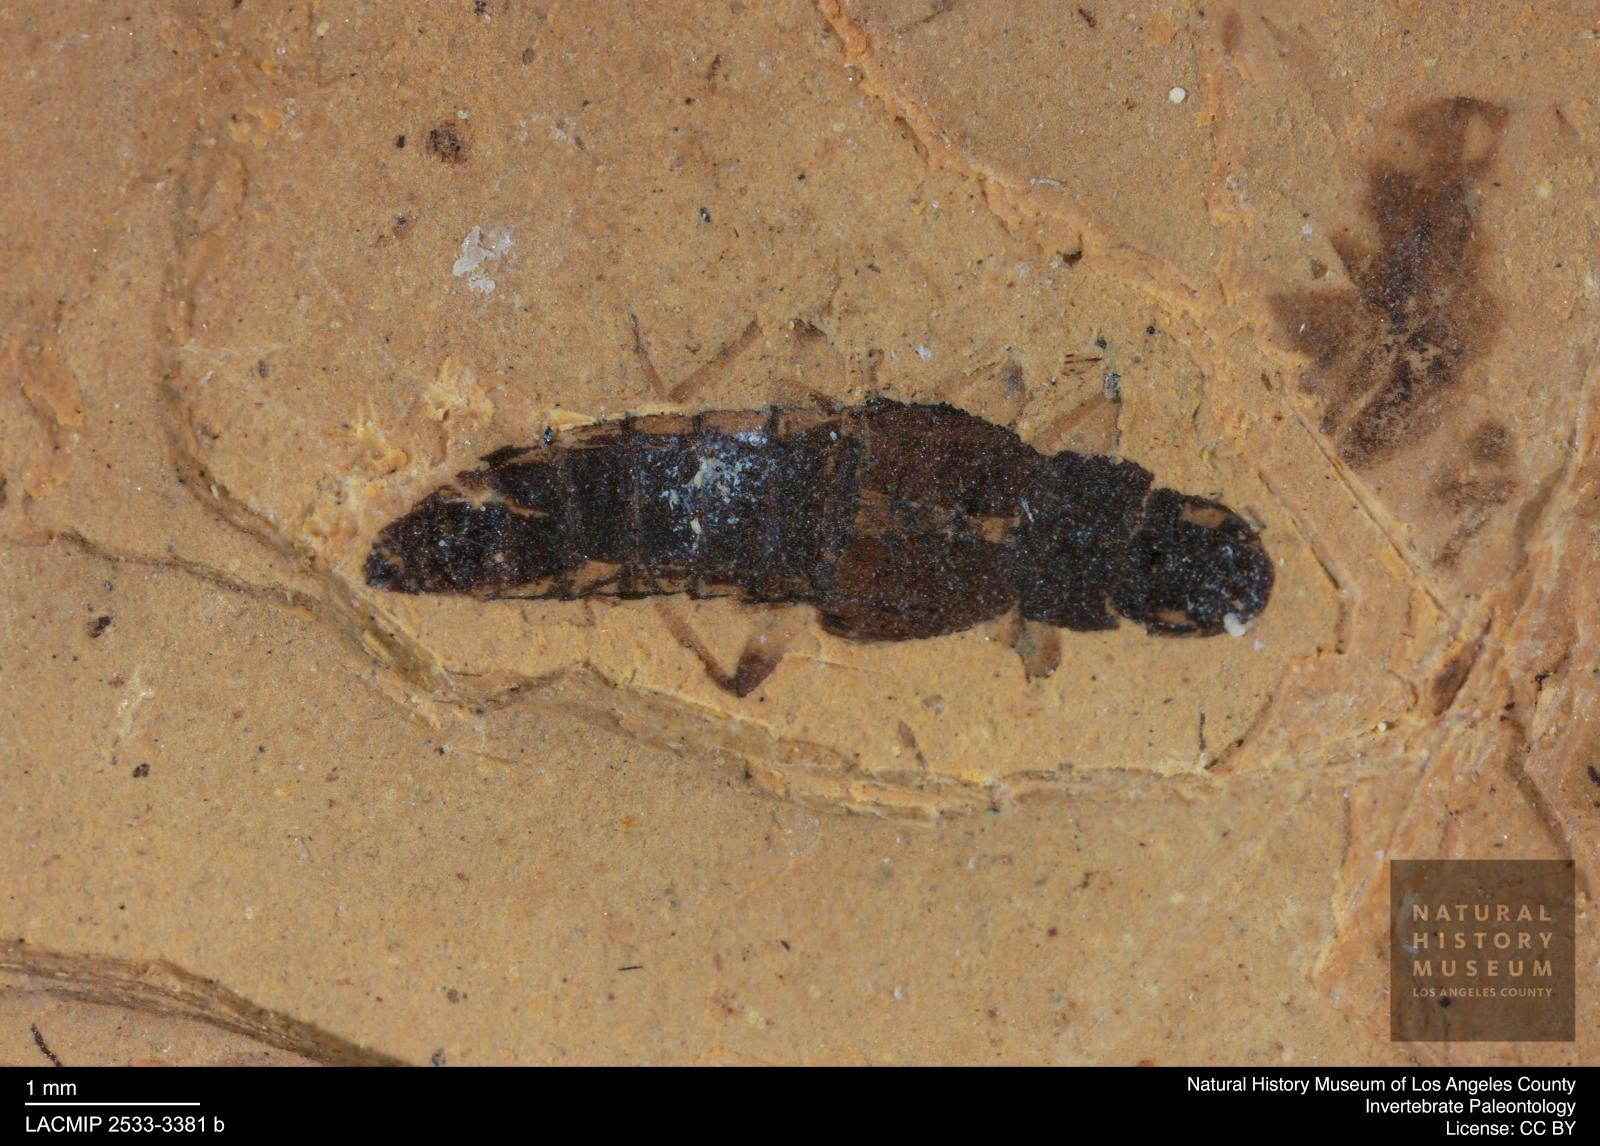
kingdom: Animalia
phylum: Arthropoda
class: Insecta
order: Coleoptera
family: Staphylinidae
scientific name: Staphylinidae
